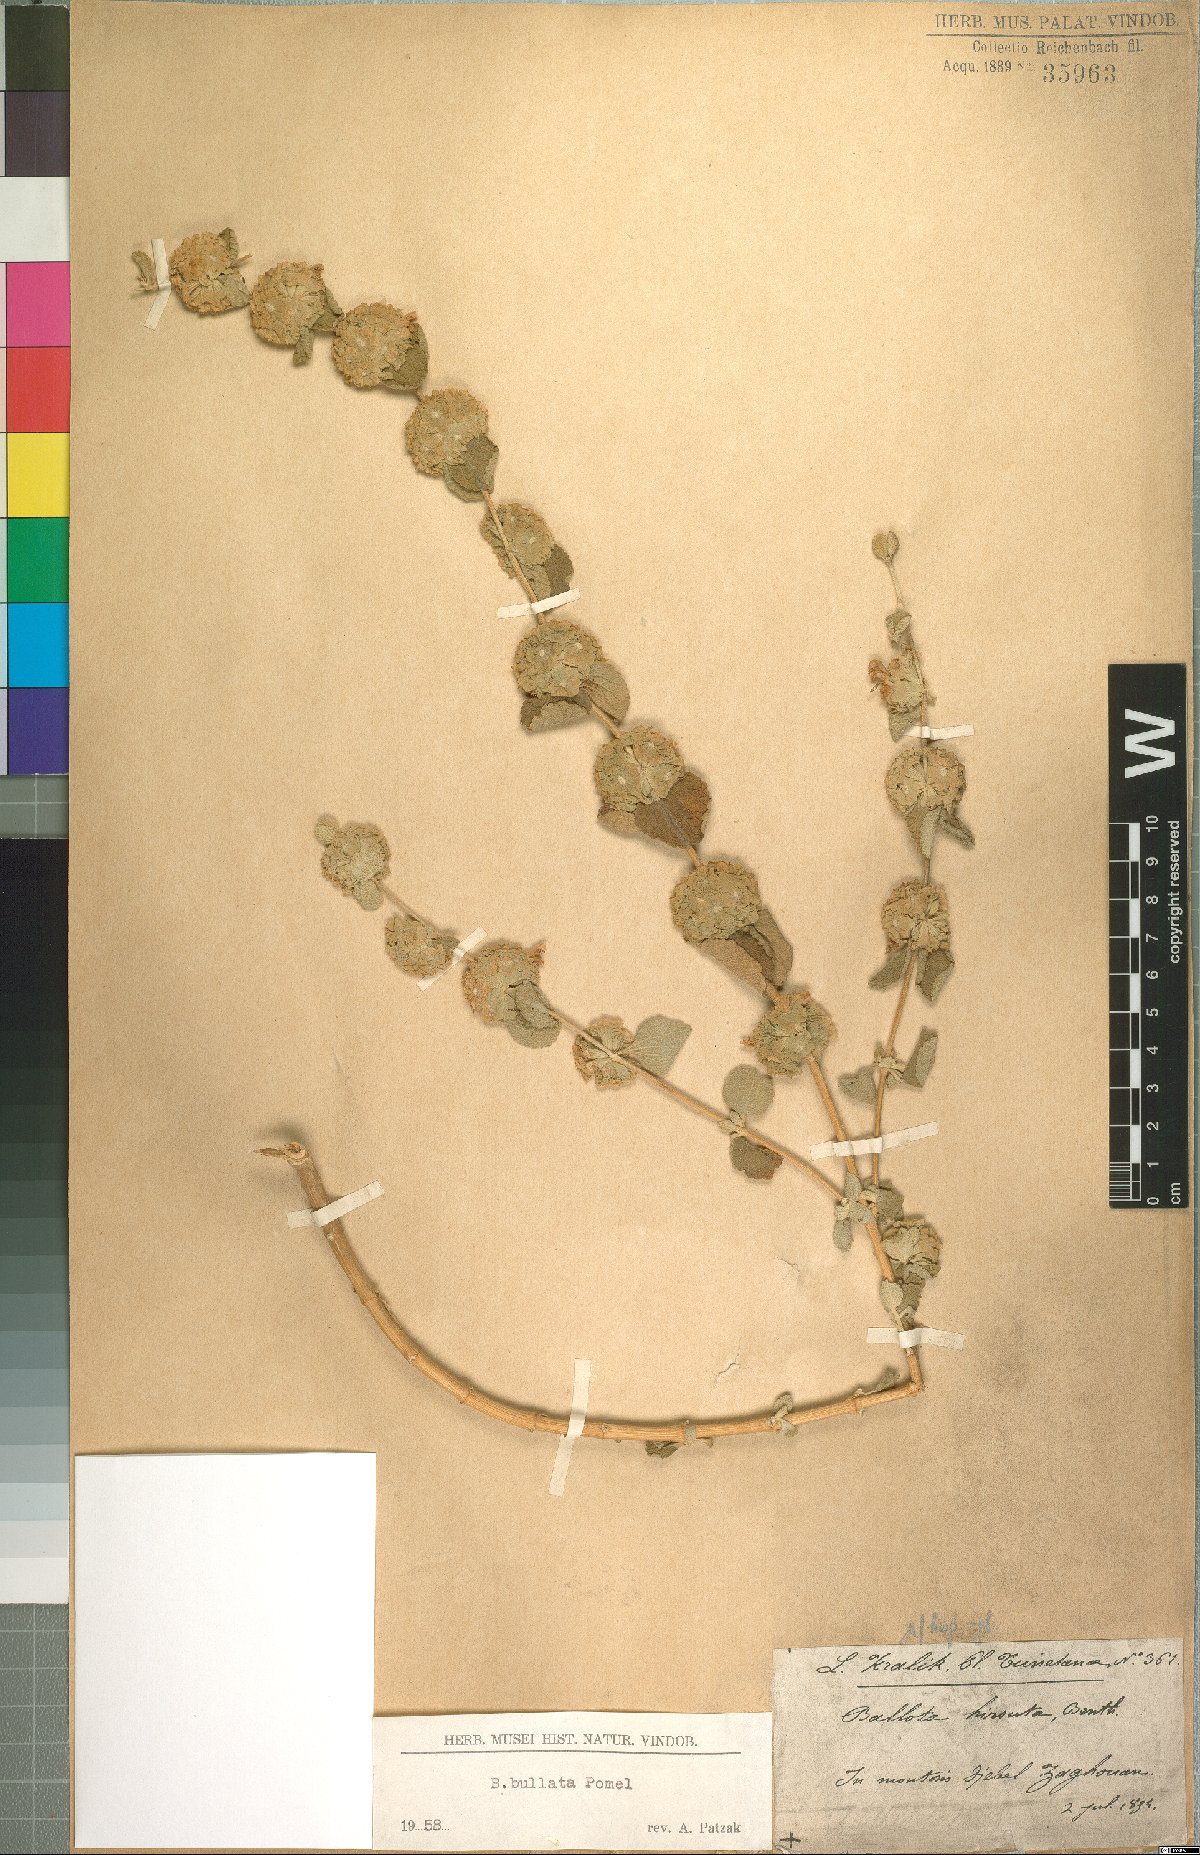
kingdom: Plantae
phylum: Tracheophyta
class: Magnoliopsida
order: Lamiales
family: Lamiaceae
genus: Pseudodictamnus
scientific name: Pseudodictamnus bullatus
